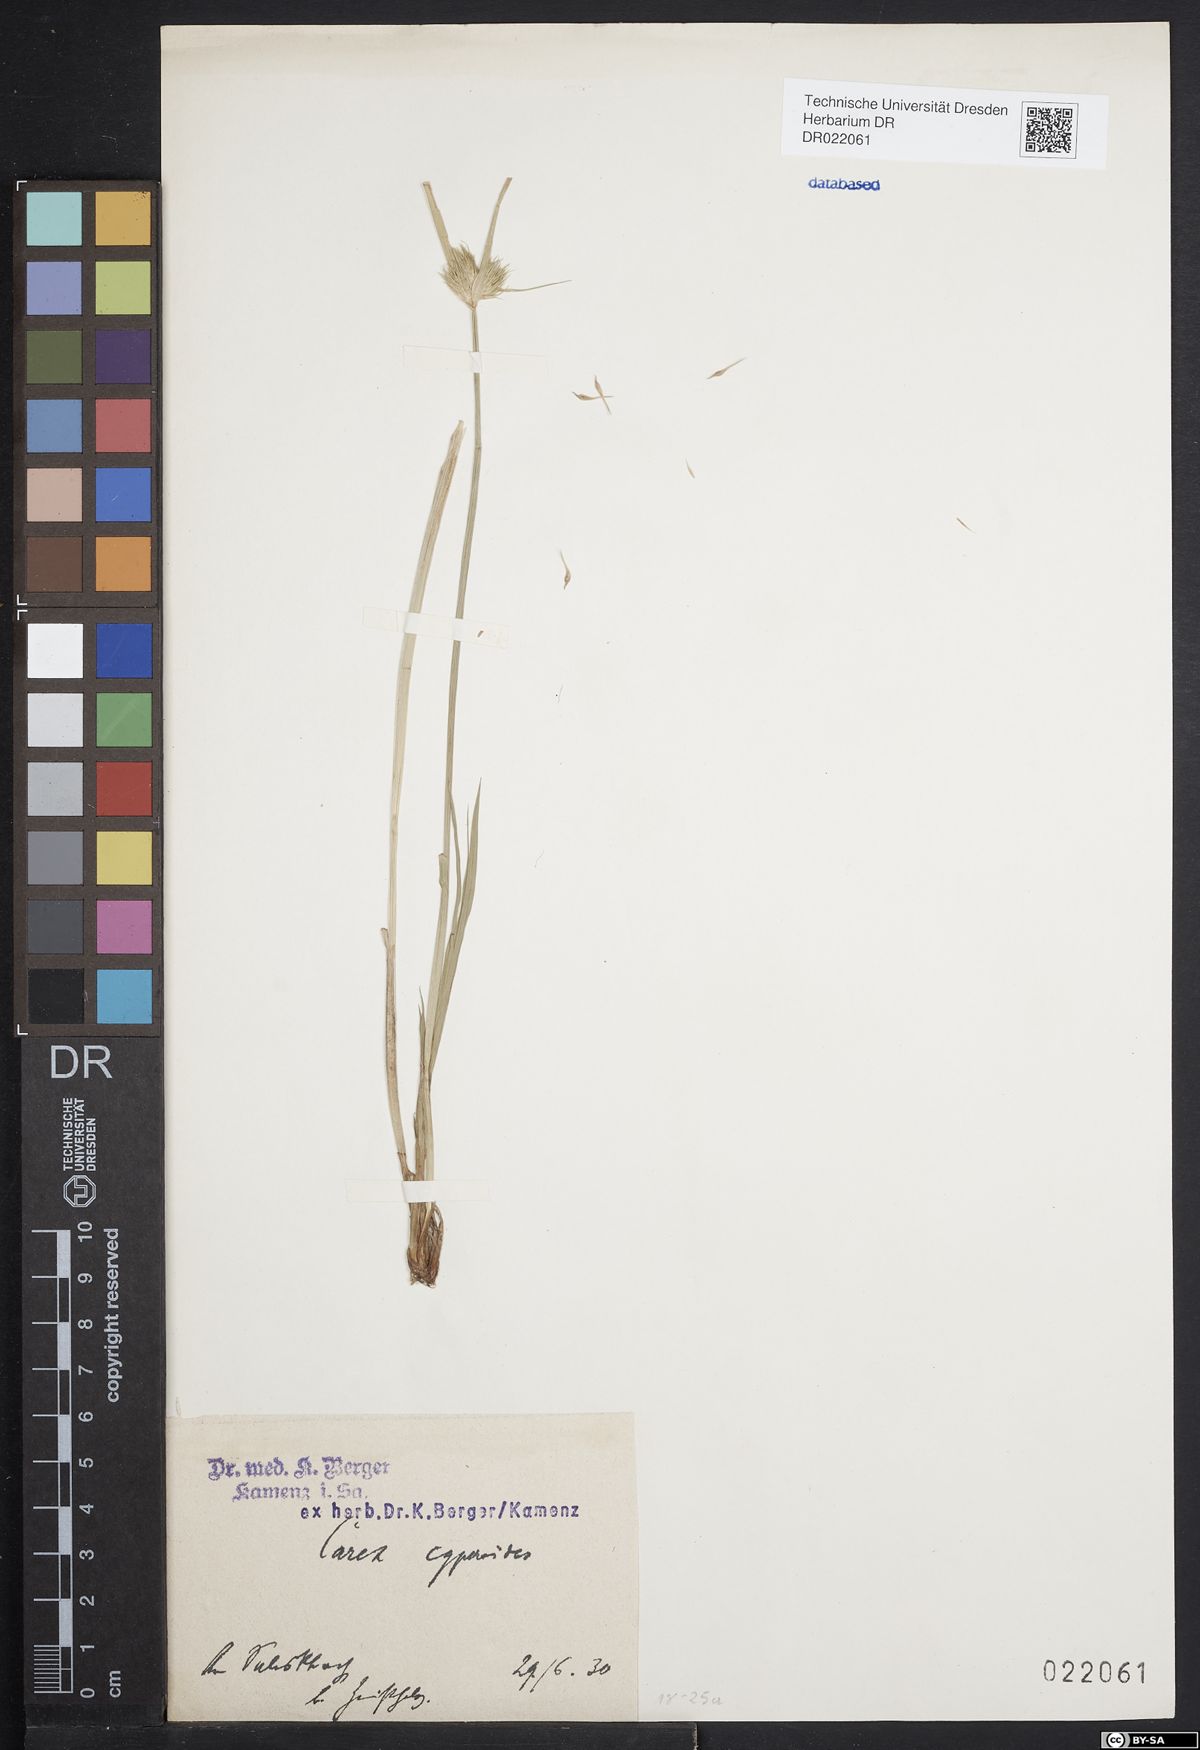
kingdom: Plantae
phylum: Tracheophyta
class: Liliopsida
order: Poales
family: Cyperaceae
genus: Carex
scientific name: Carex bohemica
